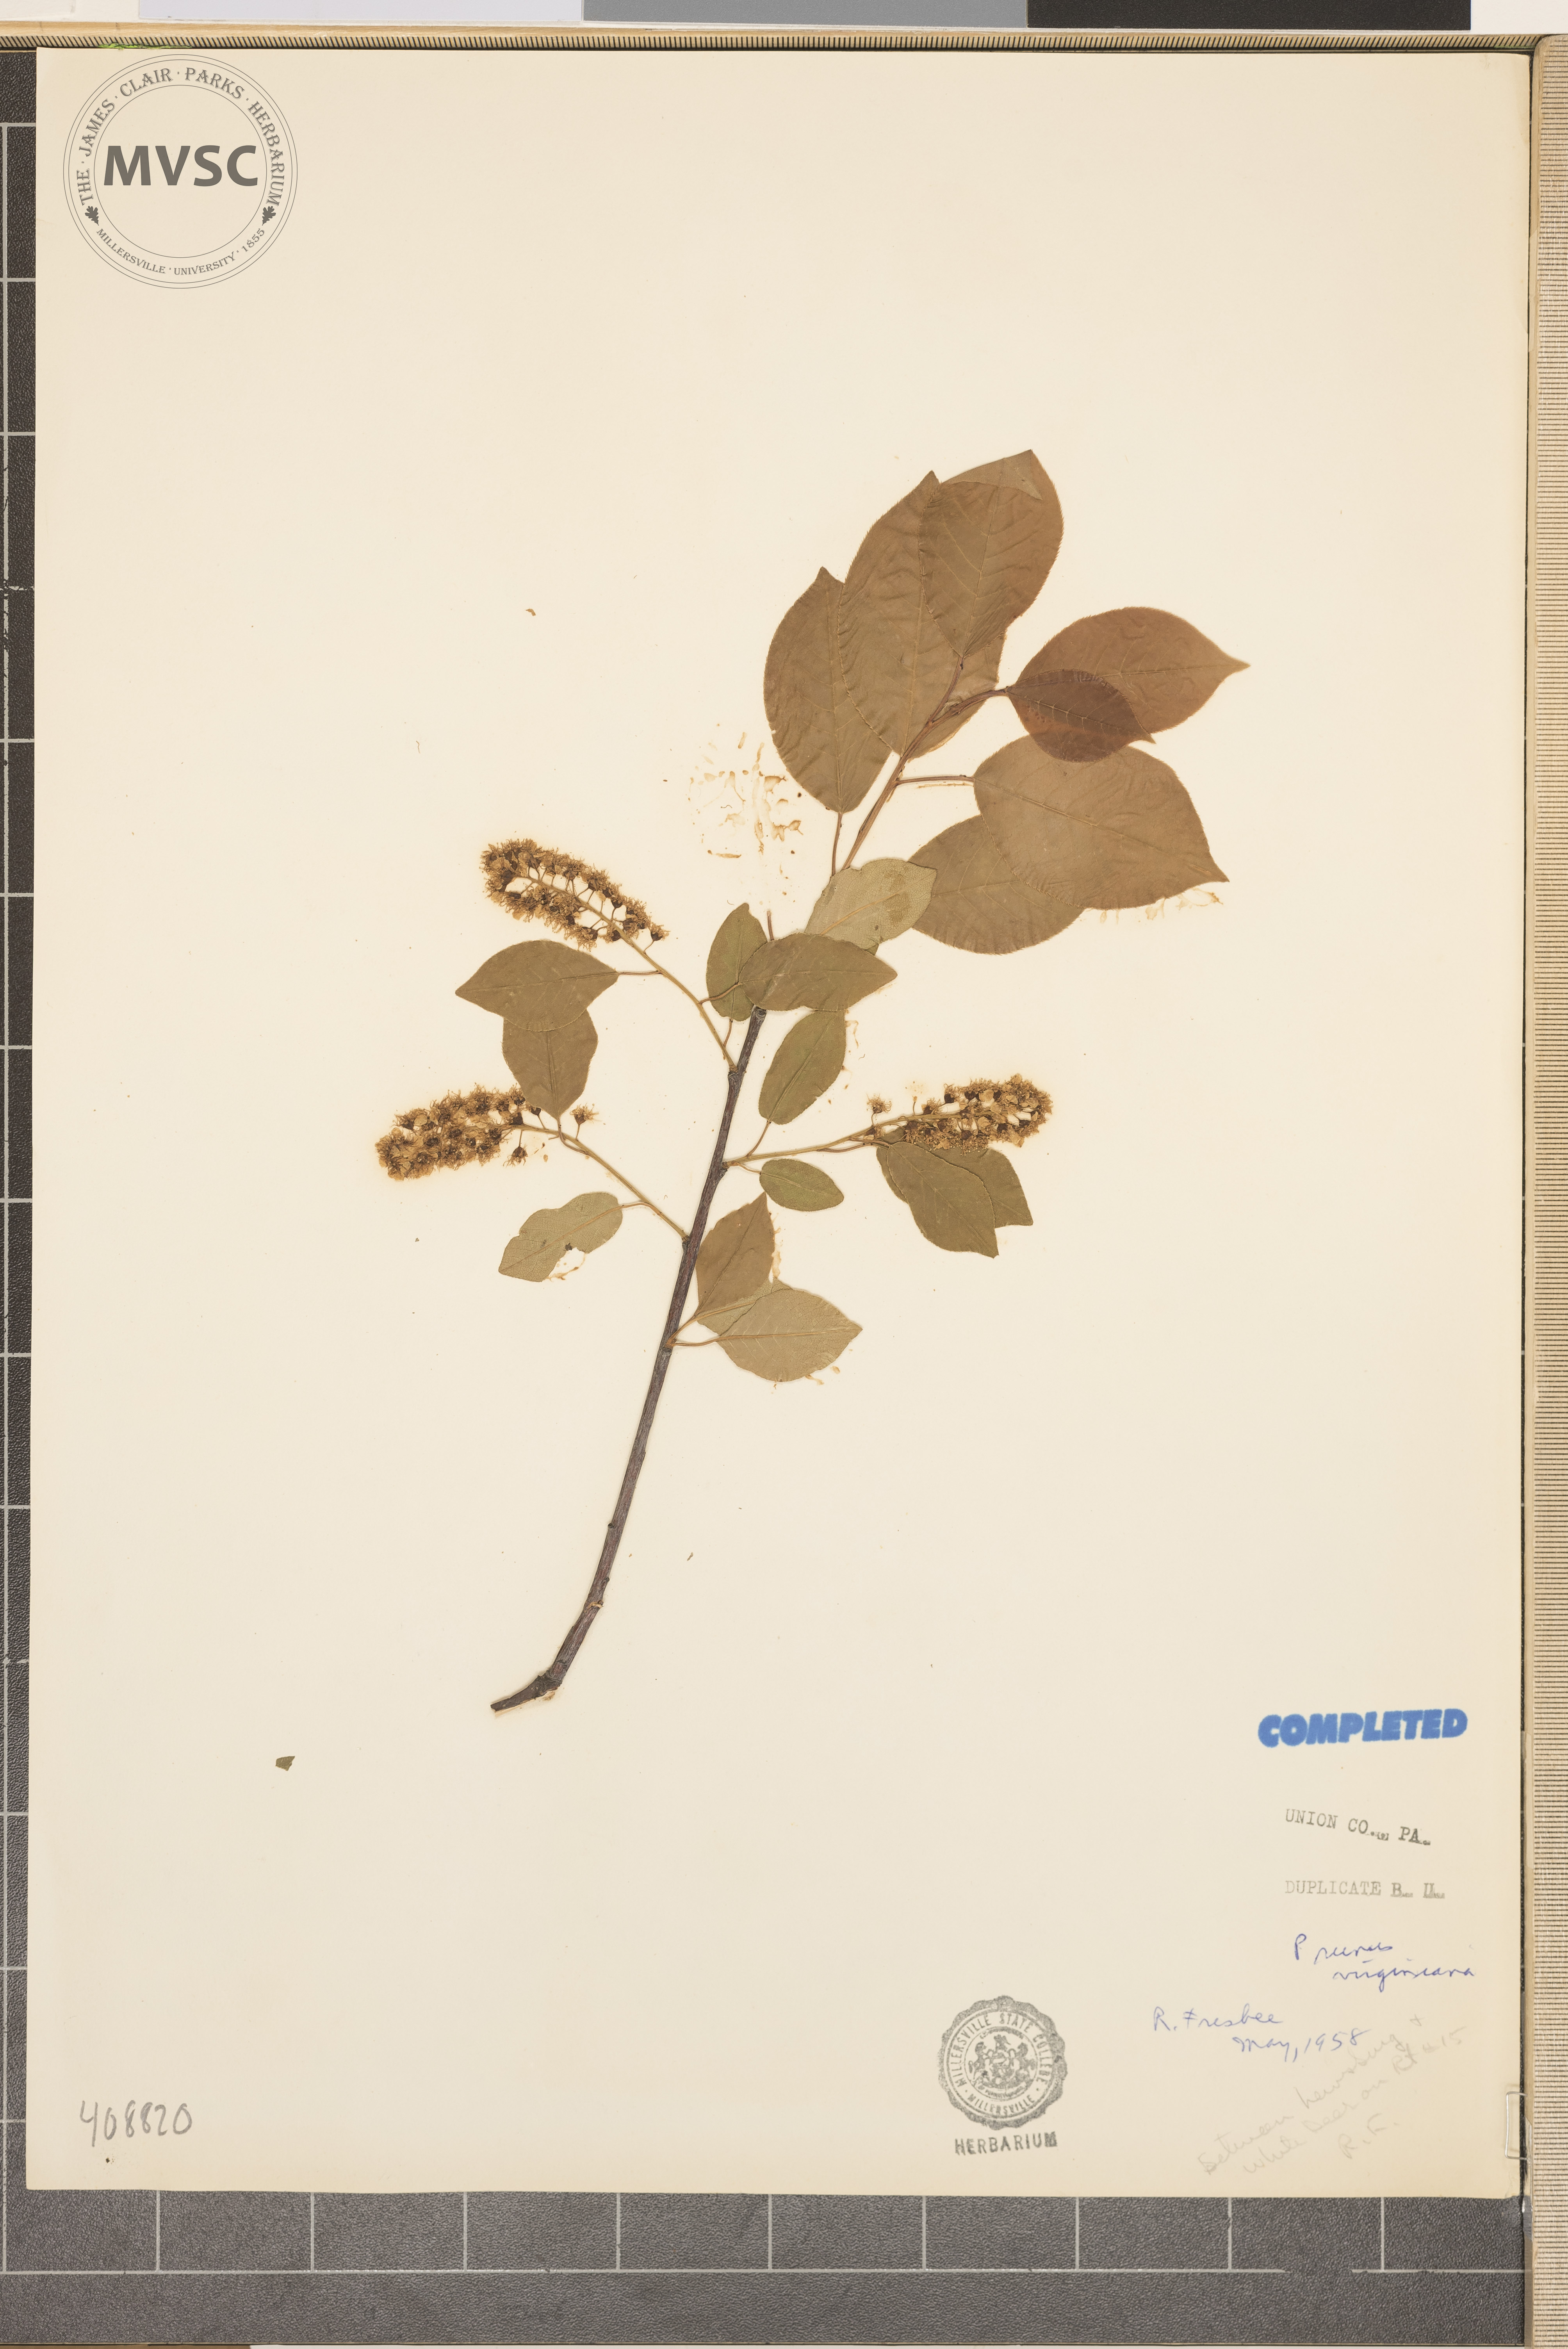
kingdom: Plantae
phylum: Tracheophyta
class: Magnoliopsida
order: Rosales
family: Rosaceae
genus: Prunus
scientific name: Prunus virginiana
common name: Chokecherry
